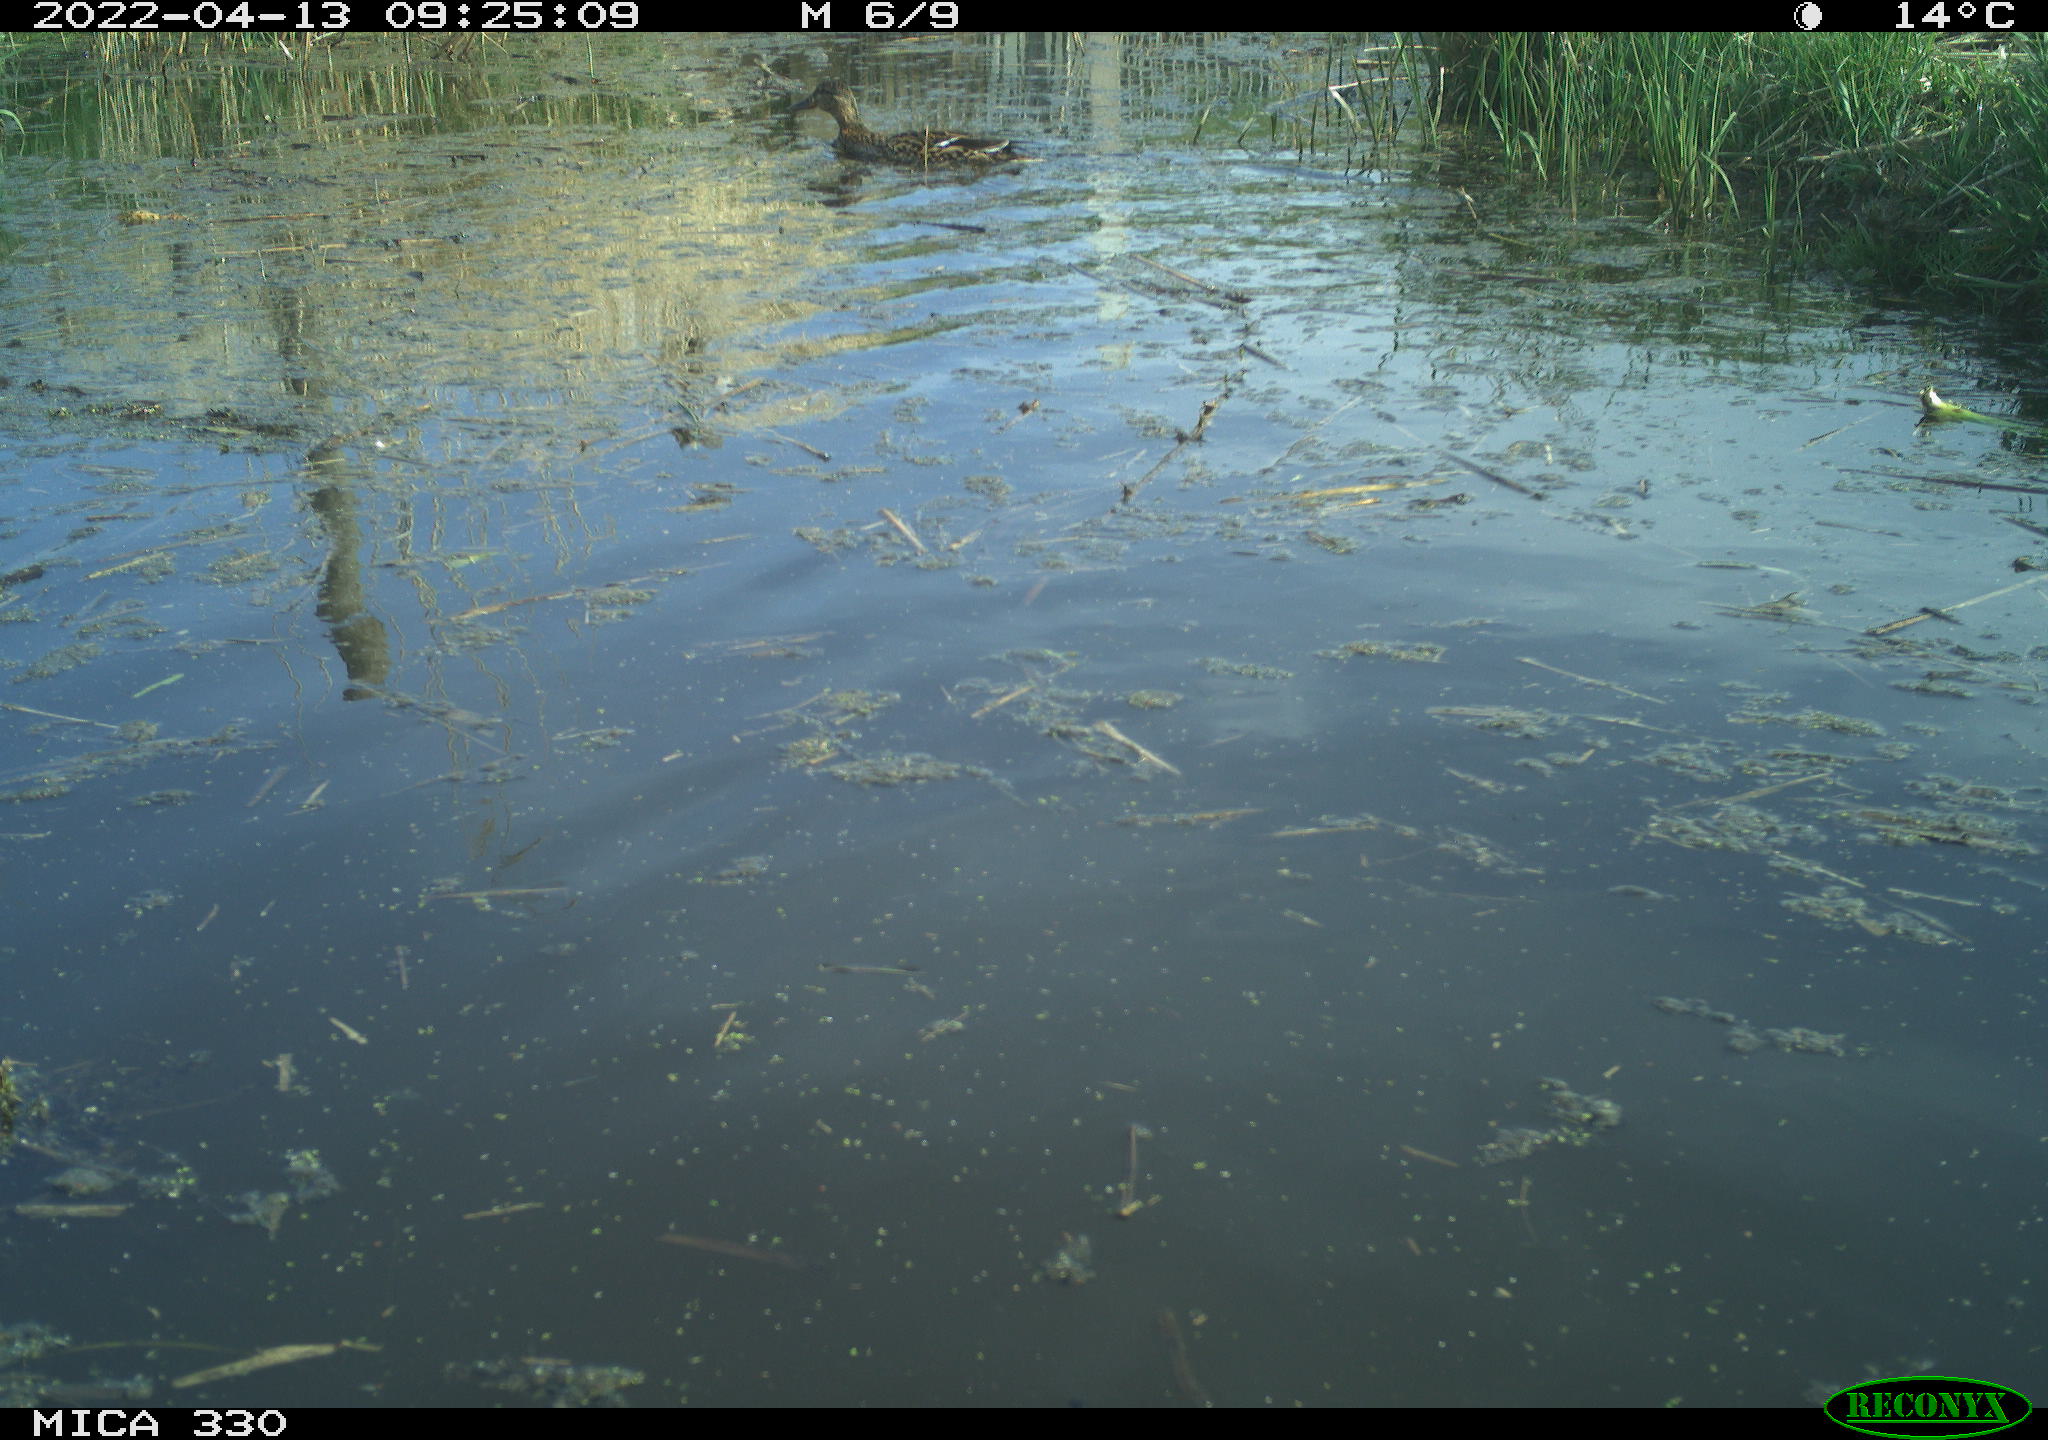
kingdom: Animalia
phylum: Chordata
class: Aves
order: Anseriformes
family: Anatidae
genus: Mareca
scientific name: Mareca strepera
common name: Gadwall
